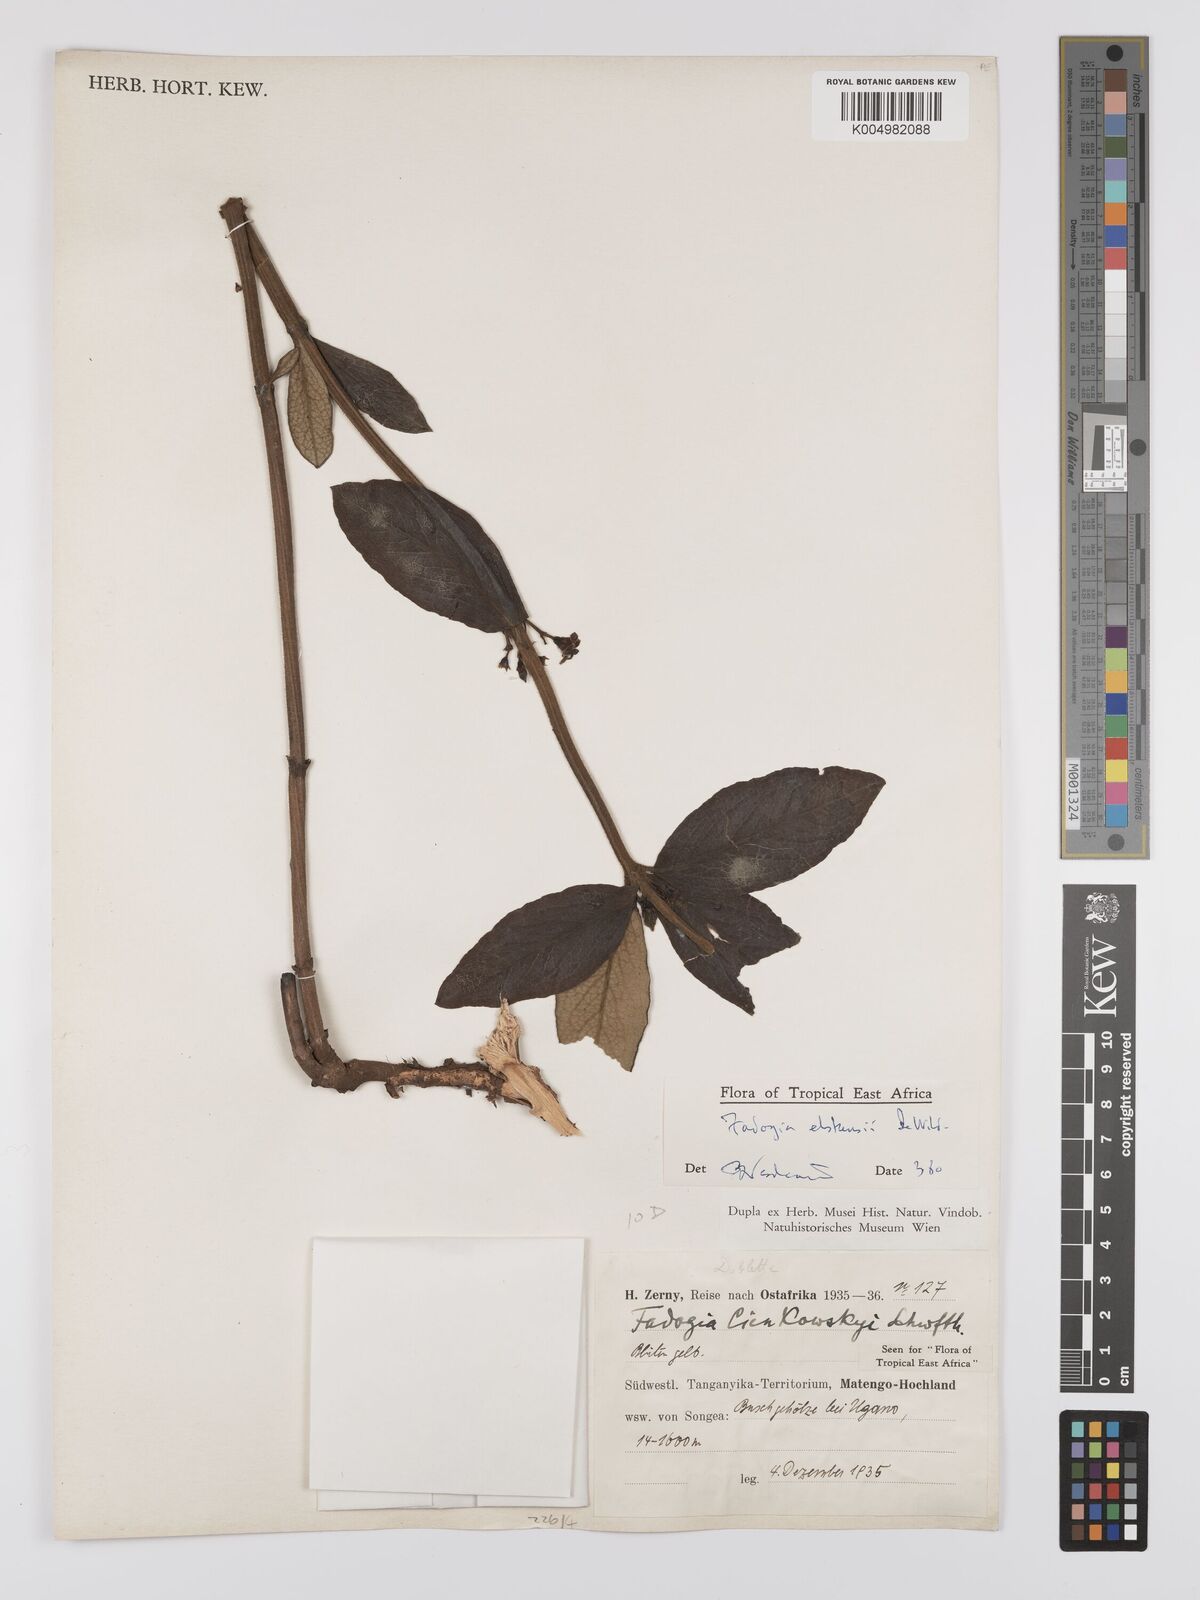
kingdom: Plantae
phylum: Tracheophyta
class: Magnoliopsida
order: Gentianales
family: Rubiaceae
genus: Fadogia
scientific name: Fadogia elskensii
